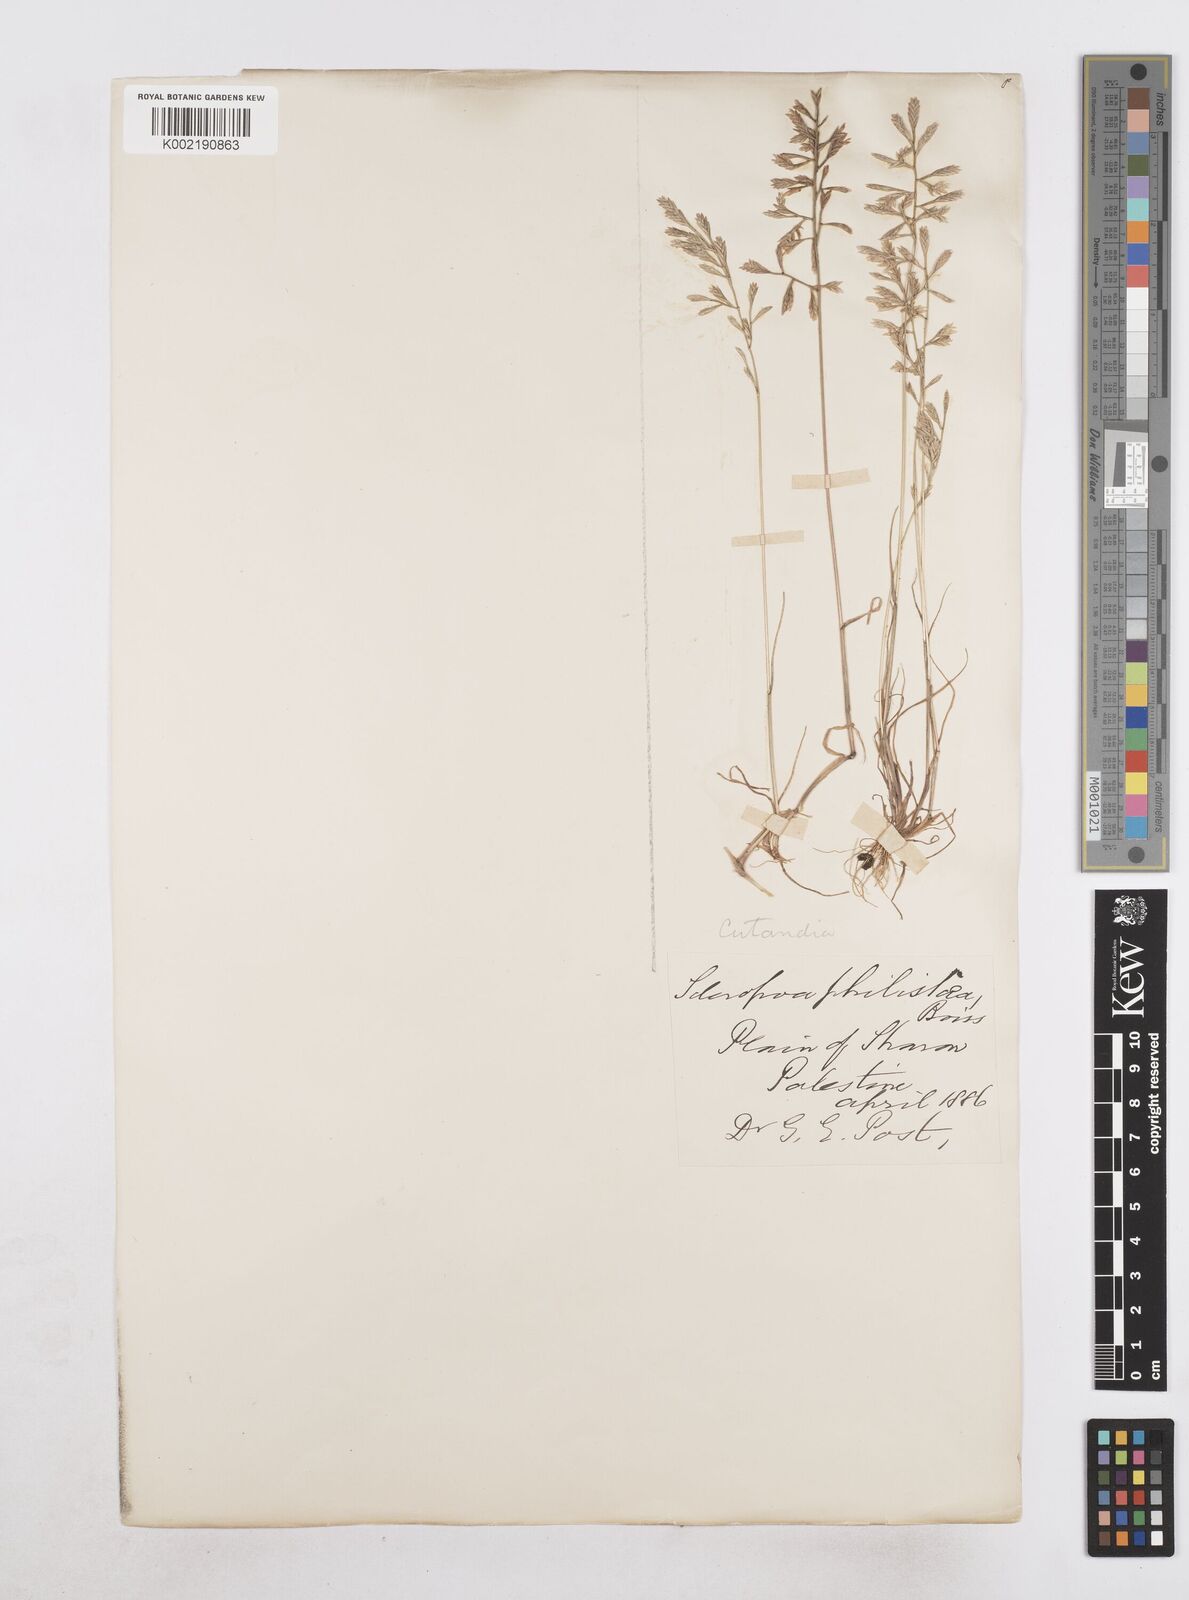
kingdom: Plantae
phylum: Tracheophyta
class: Liliopsida
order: Poales
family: Poaceae
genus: Desmazeria
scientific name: Desmazeria philistaea
